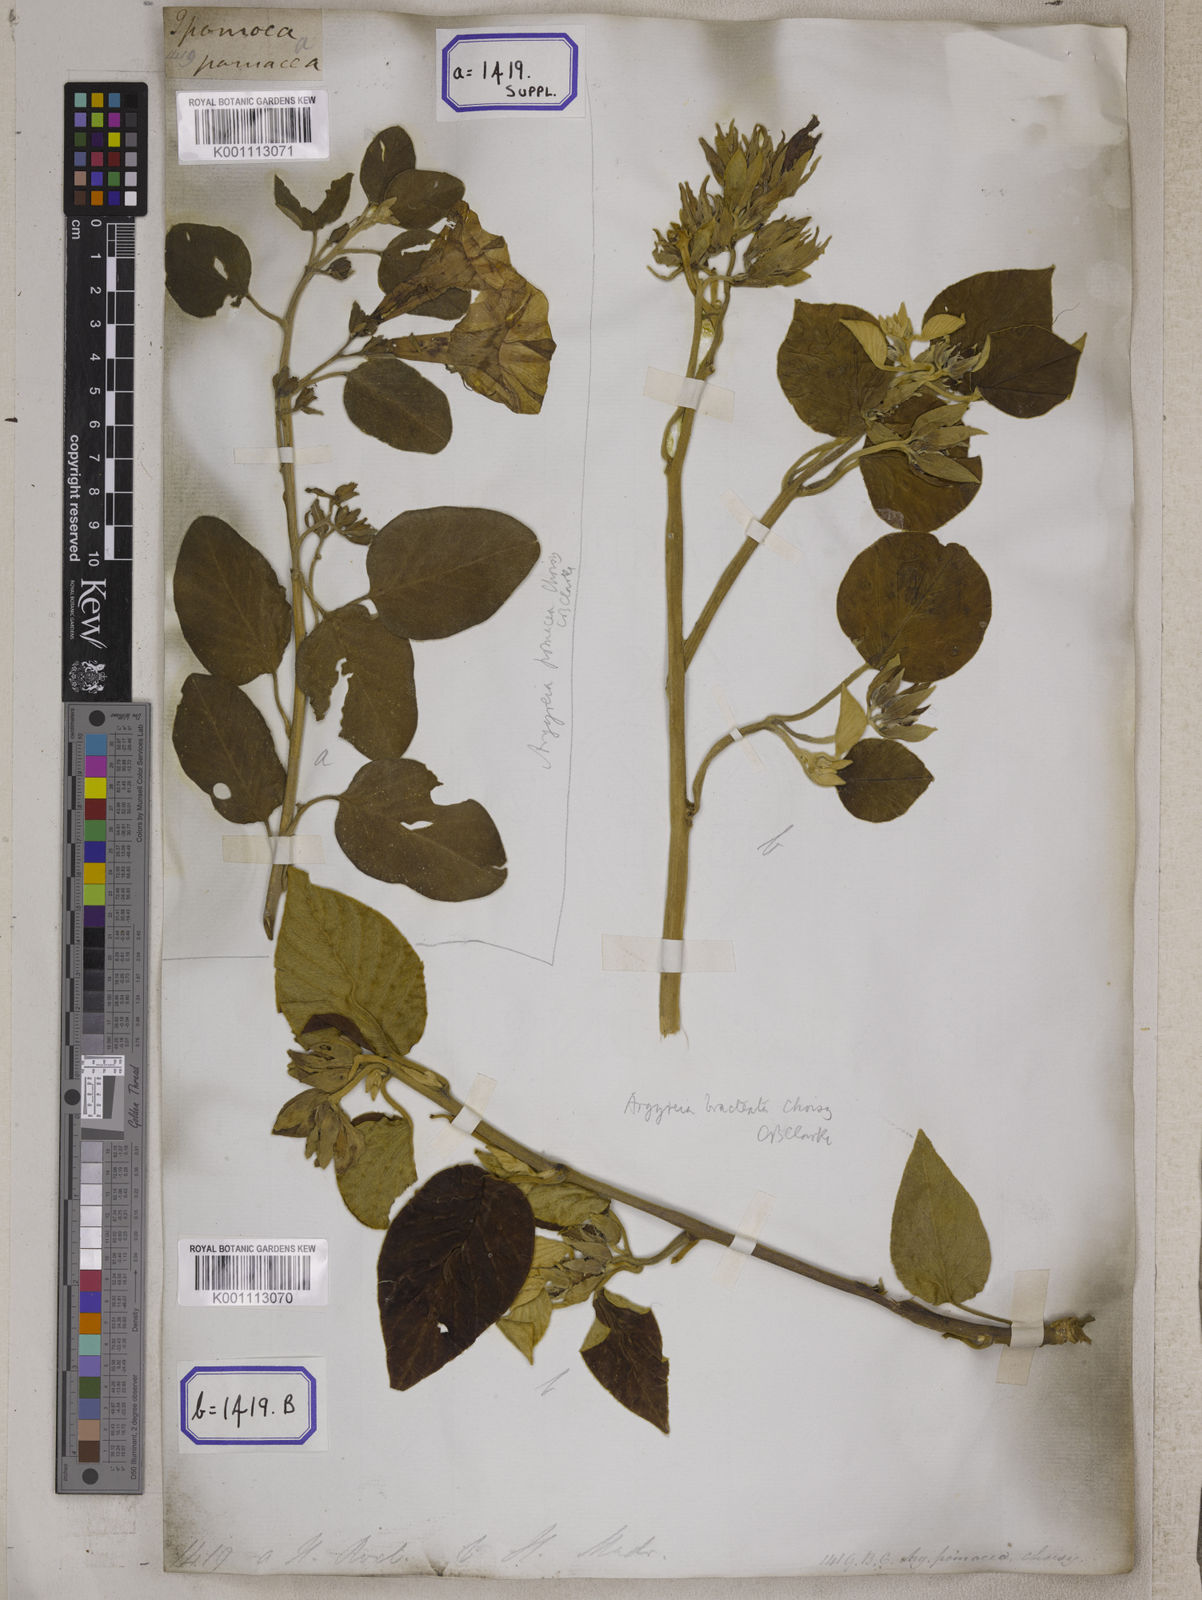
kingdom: Plantae
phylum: Tracheophyta
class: Magnoliopsida
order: Solanales
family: Convolvulaceae
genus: Argyreia
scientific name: Argyreia zeylanica
